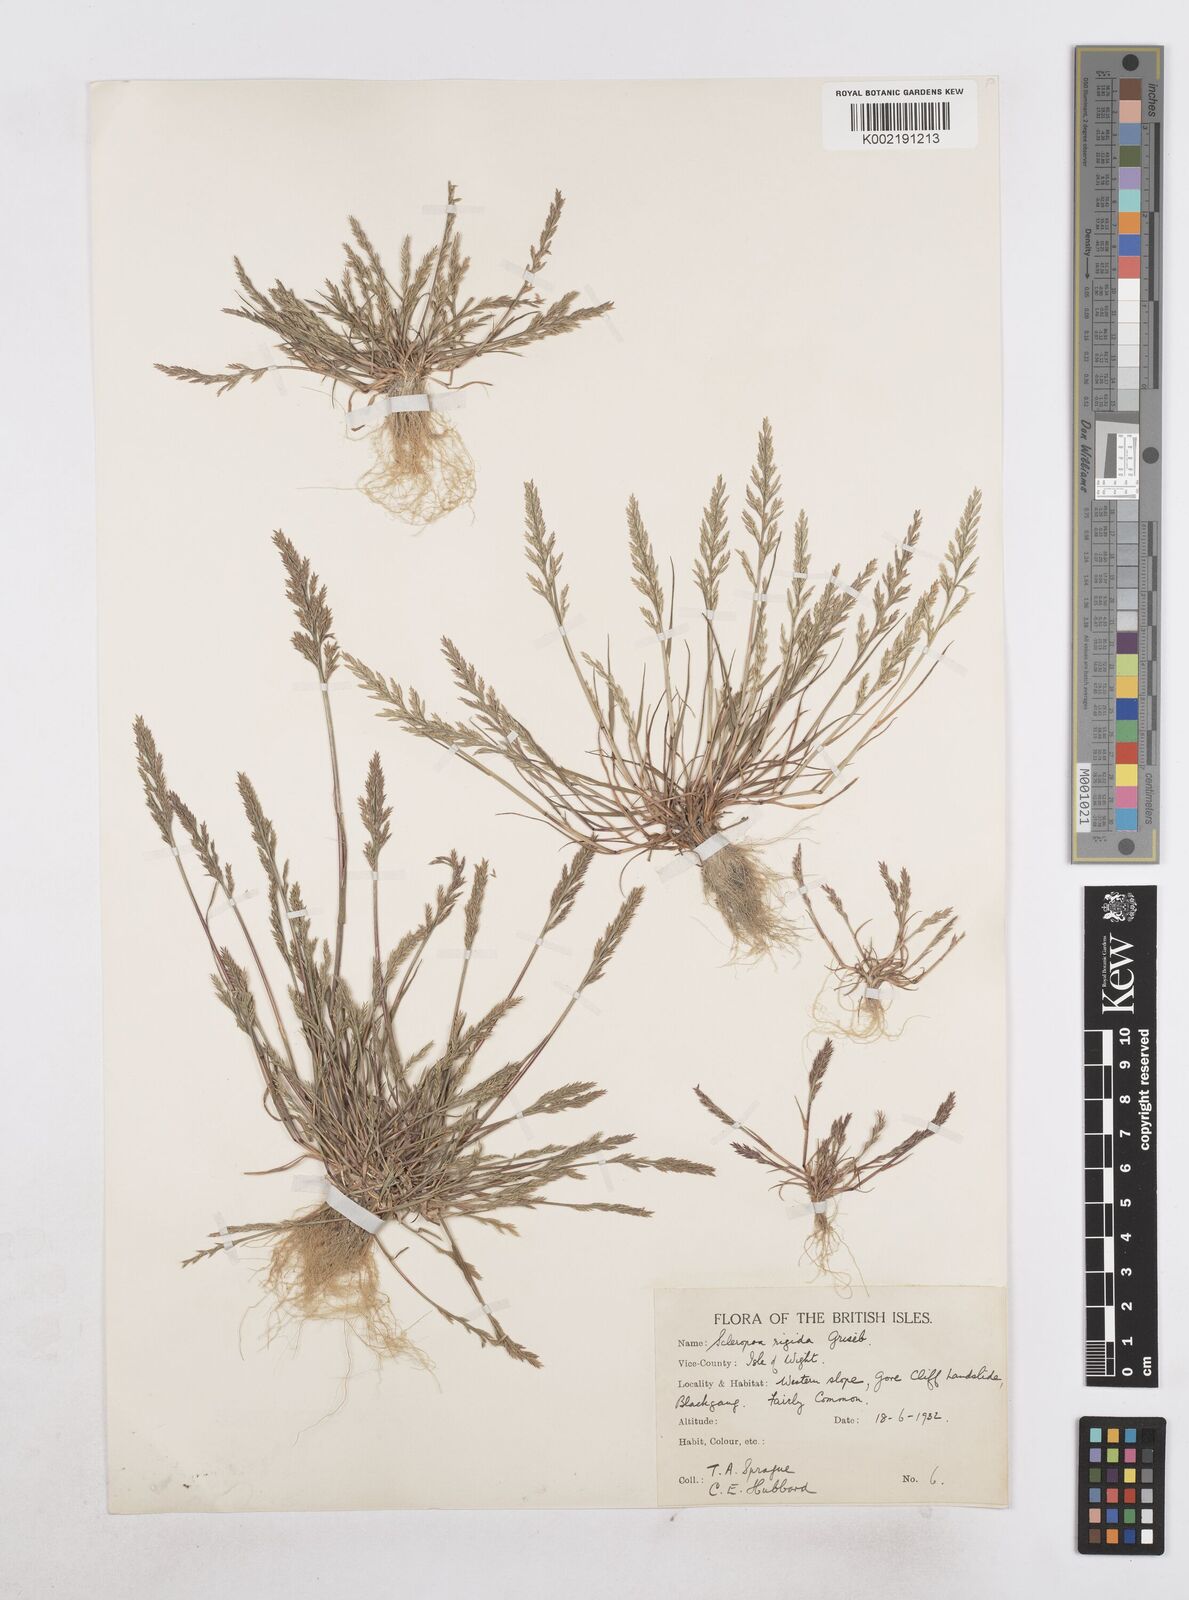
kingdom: Plantae
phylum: Tracheophyta
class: Liliopsida
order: Poales
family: Poaceae
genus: Catapodium
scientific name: Catapodium rigidum
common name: Fern-grass
